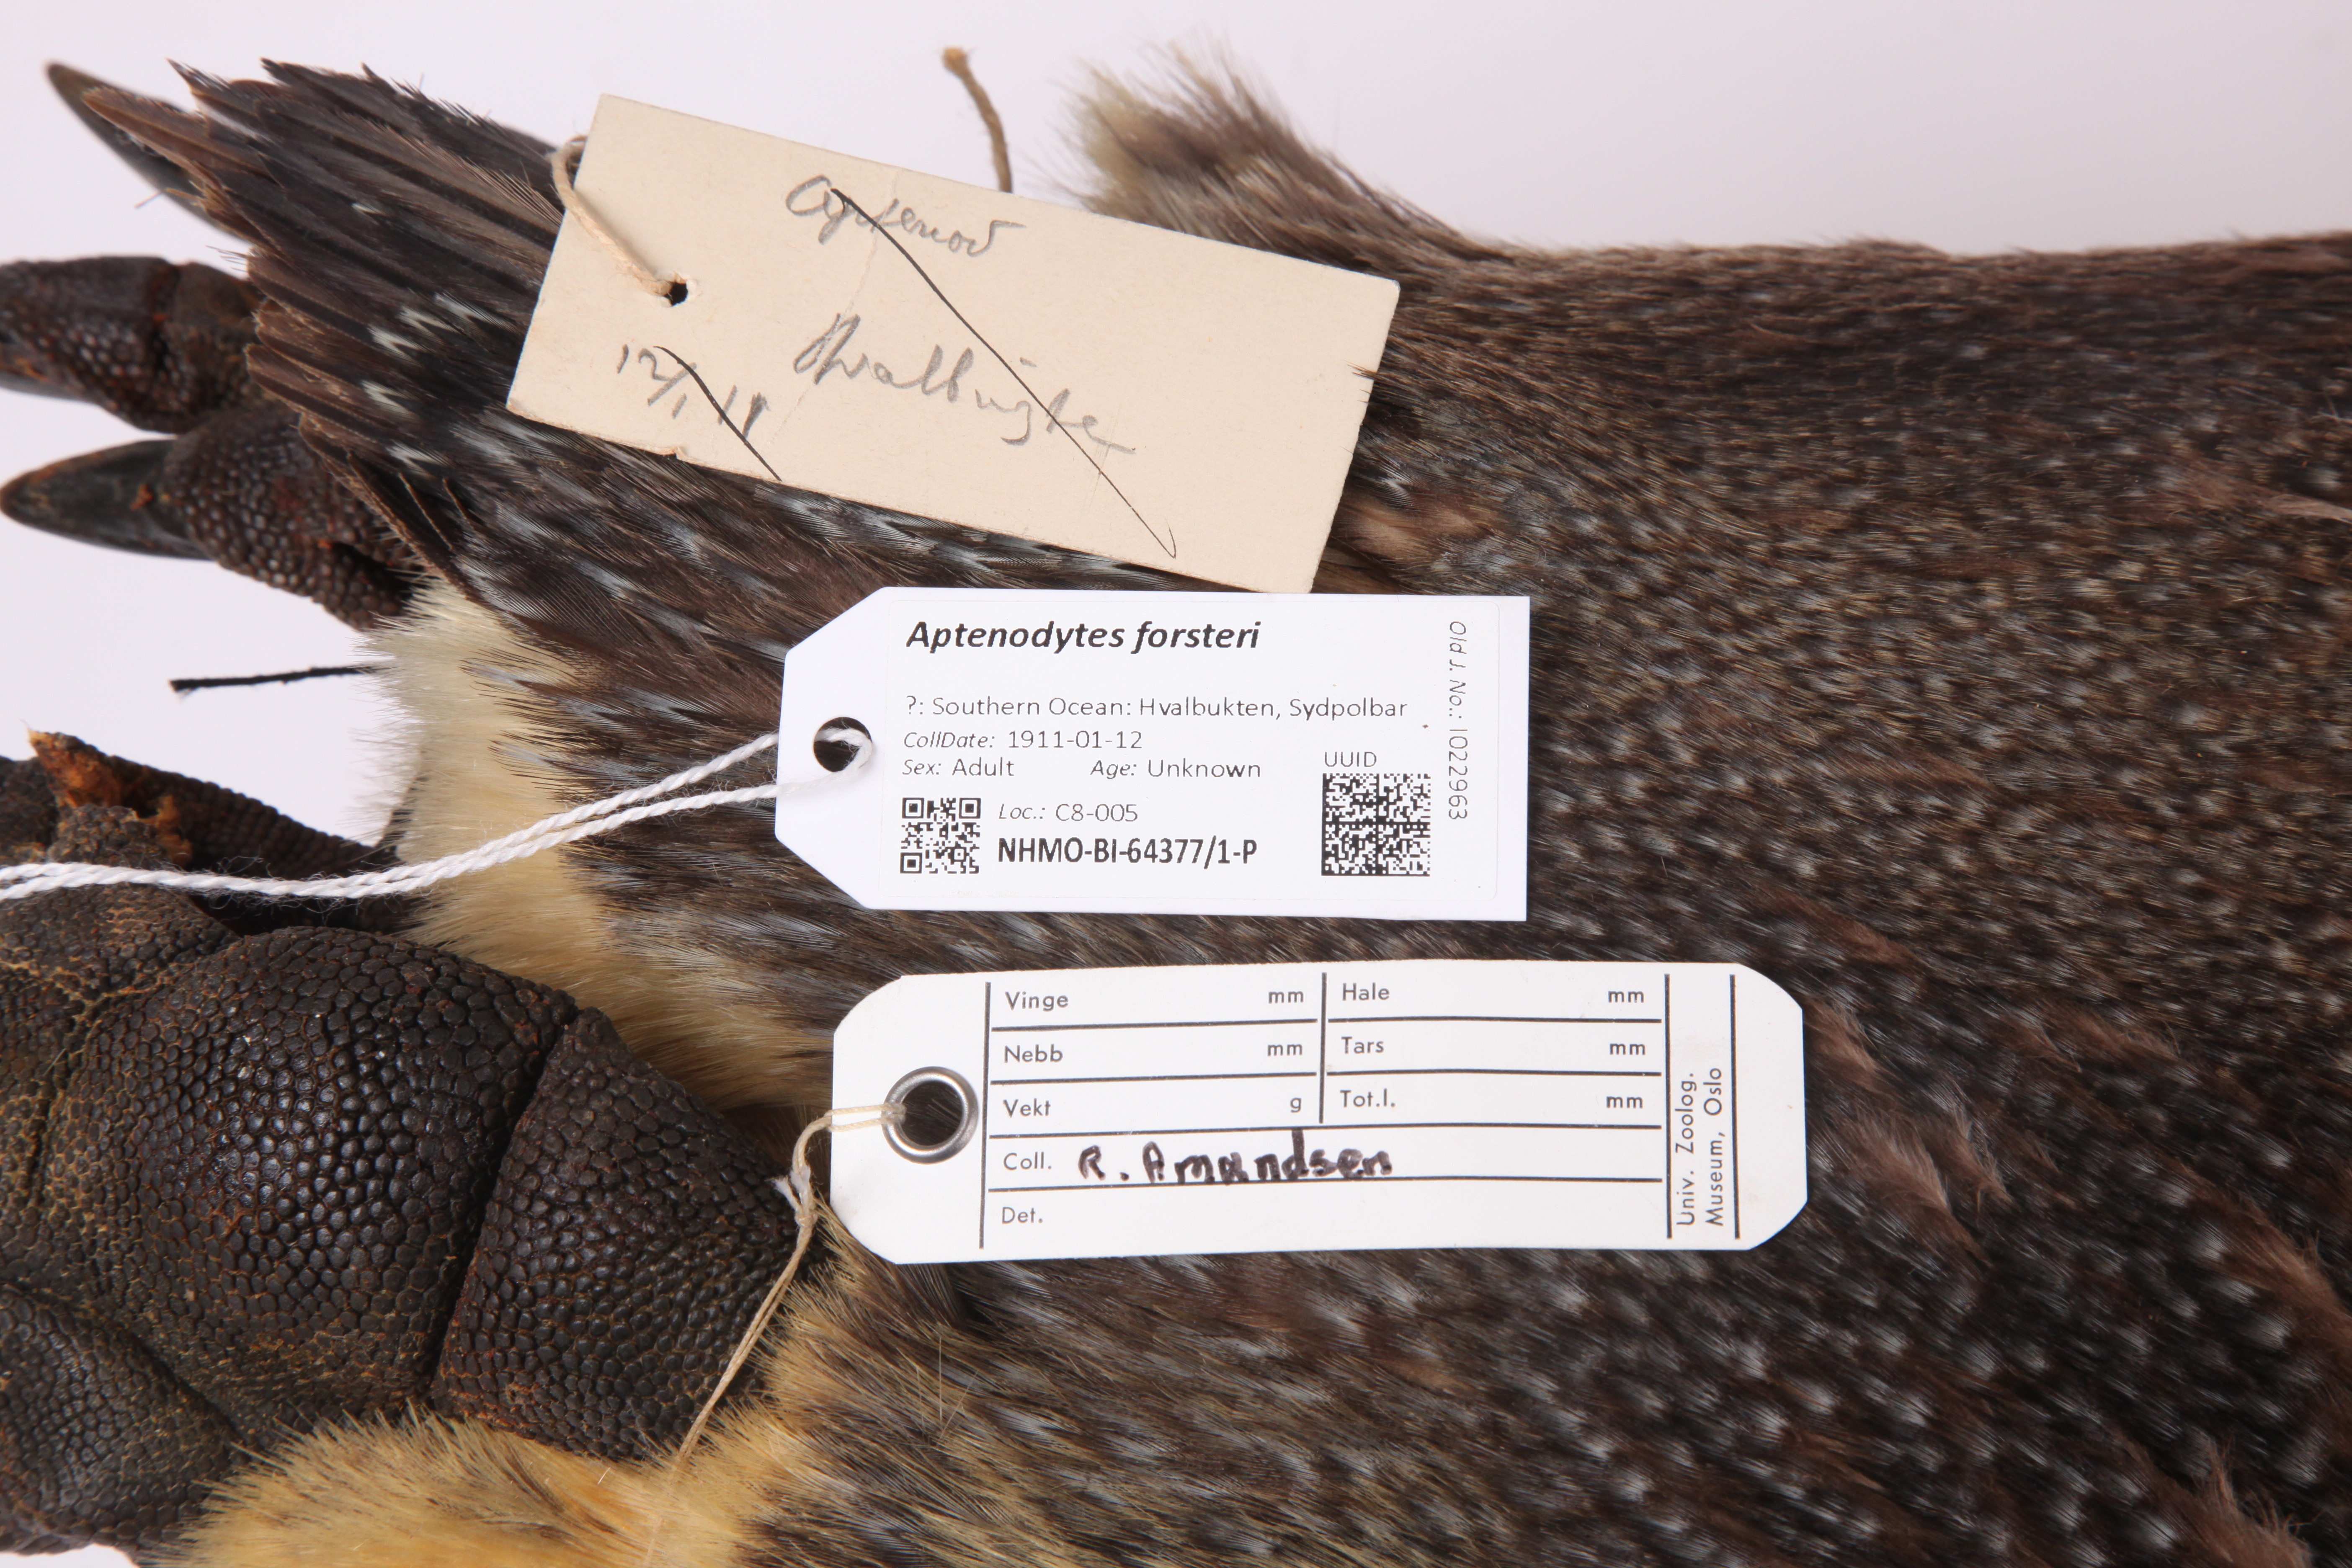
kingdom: Animalia
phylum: Chordata
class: Aves
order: Sphenisciformes
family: Spheniscidae
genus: Aptenodytes
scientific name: Aptenodytes forsteri
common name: Emperor penguin
